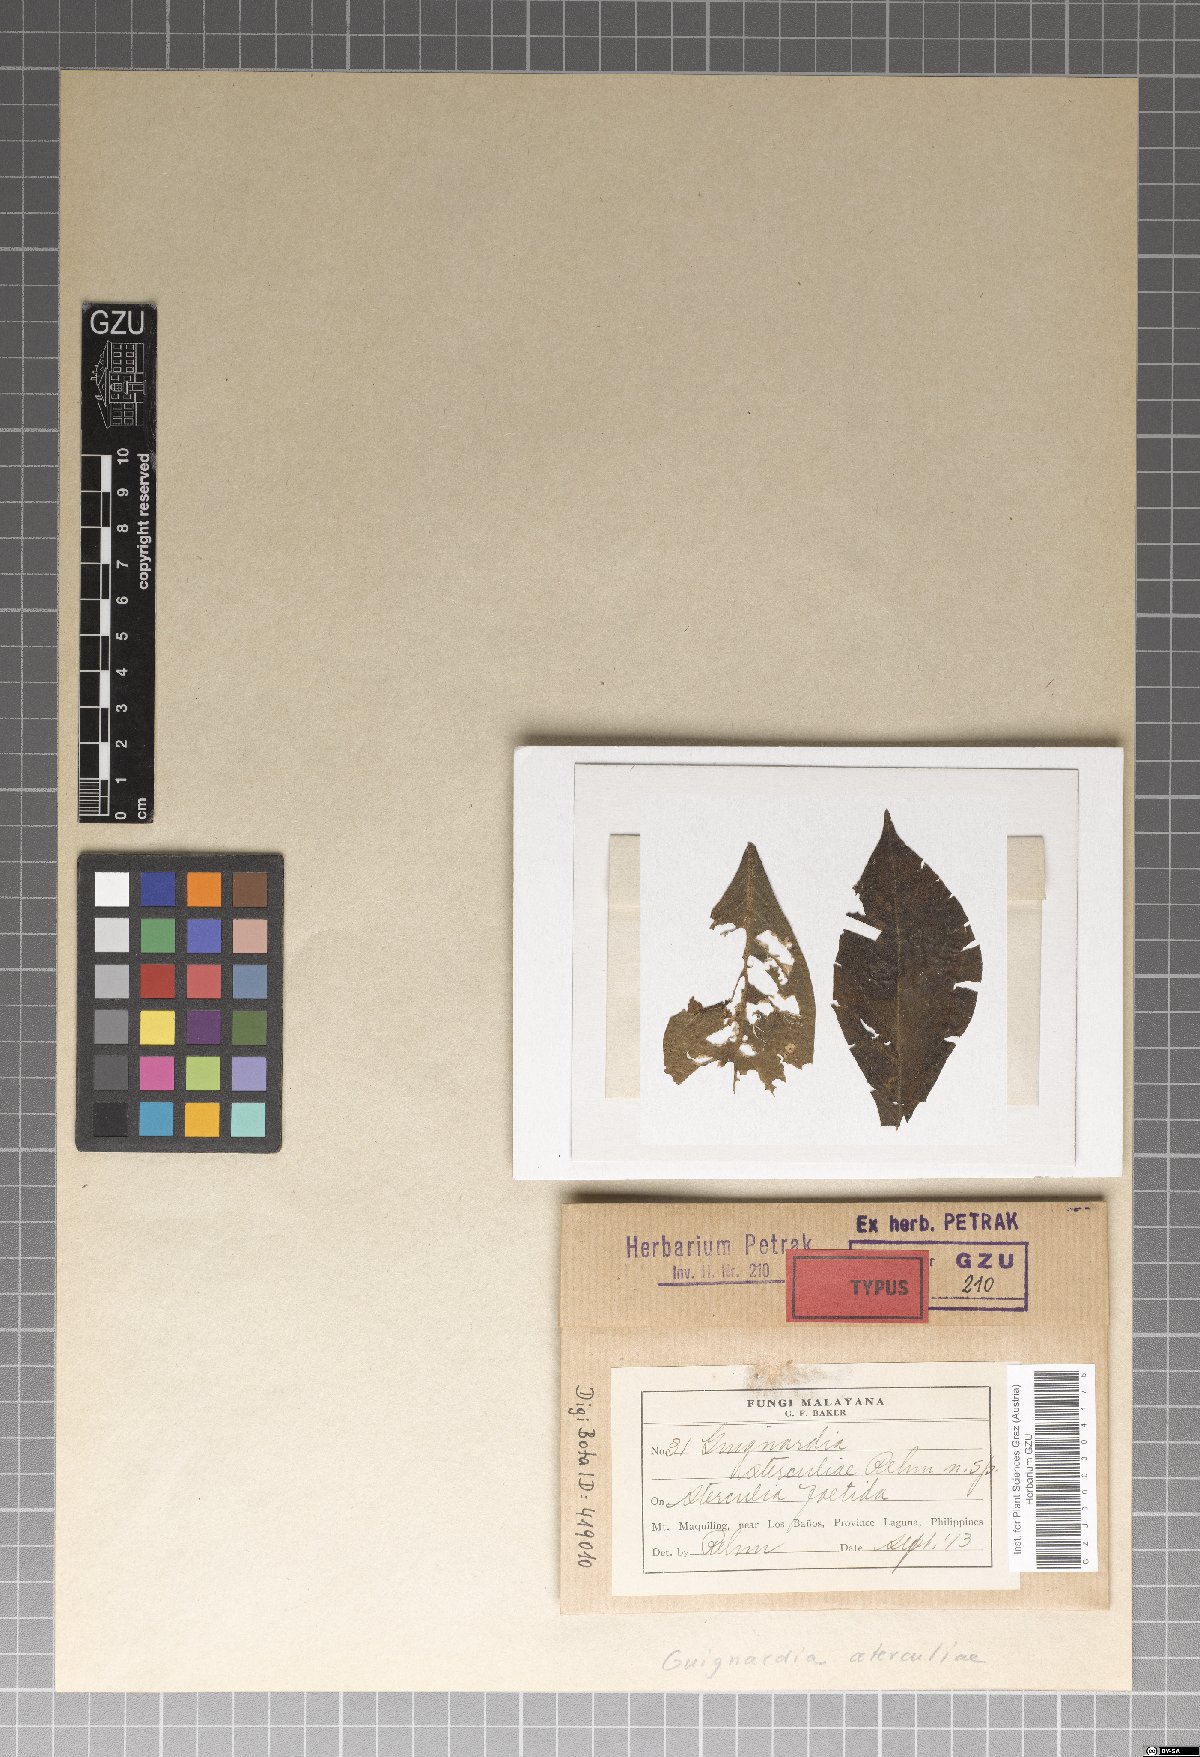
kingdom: Fungi
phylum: Ascomycota
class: Dothideomycetes
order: Botryosphaeriales
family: Botryosphaeriaceae
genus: Melanops
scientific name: Melanops sterculiae
